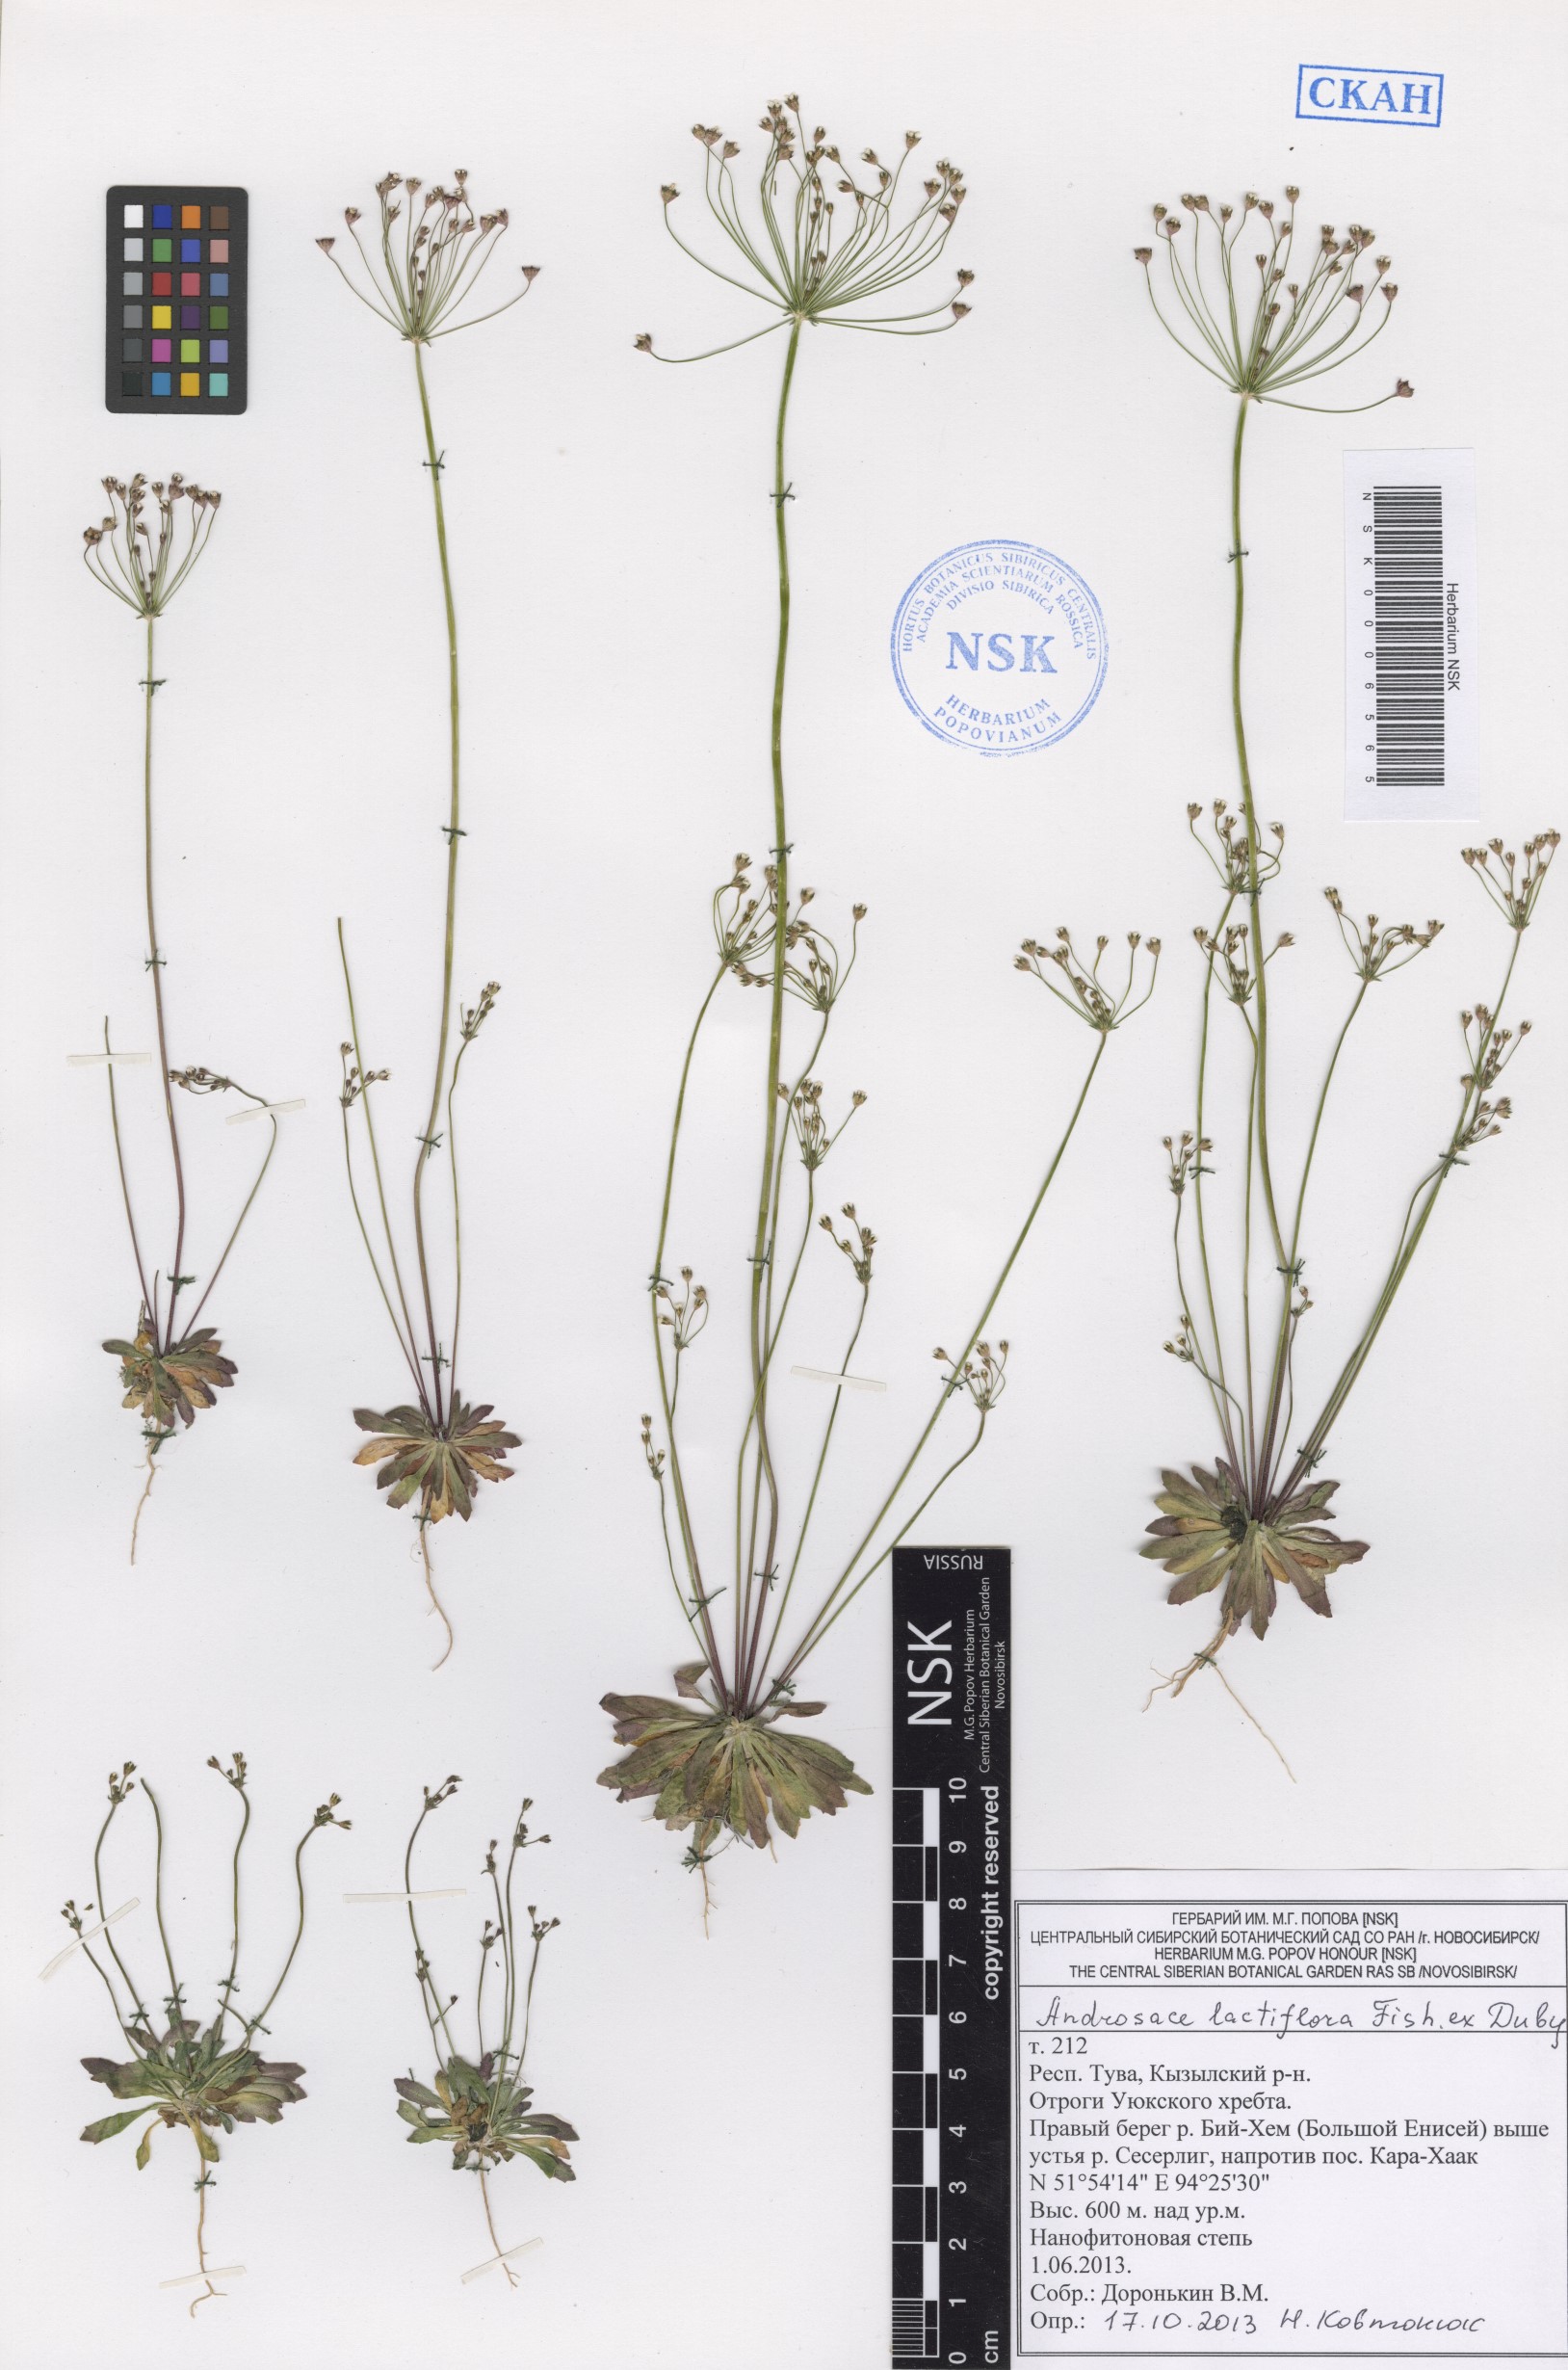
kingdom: Plantae
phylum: Tracheophyta
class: Magnoliopsida
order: Ericales
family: Primulaceae
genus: Androsace
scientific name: Androsace lactiflora
